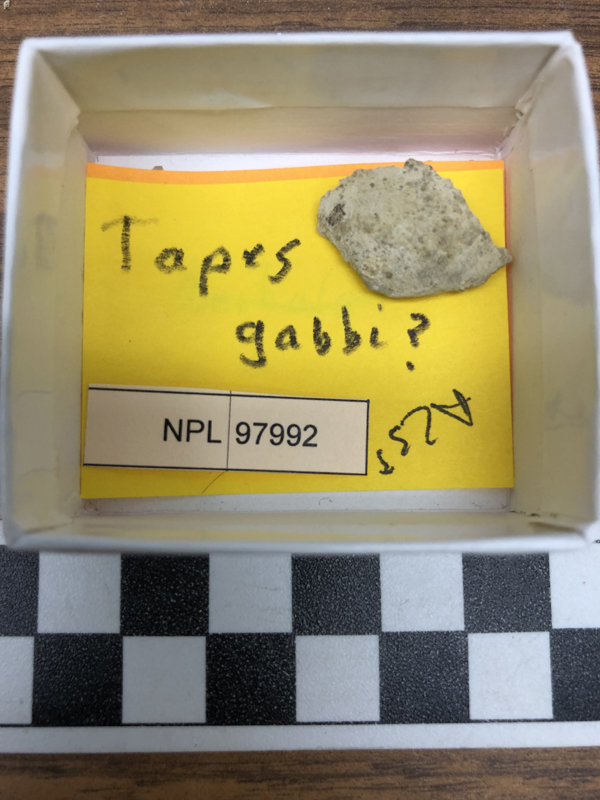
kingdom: Animalia
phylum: Mollusca
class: Bivalvia
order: Venerida
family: Veneridae
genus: Tapes
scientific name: Tapes
